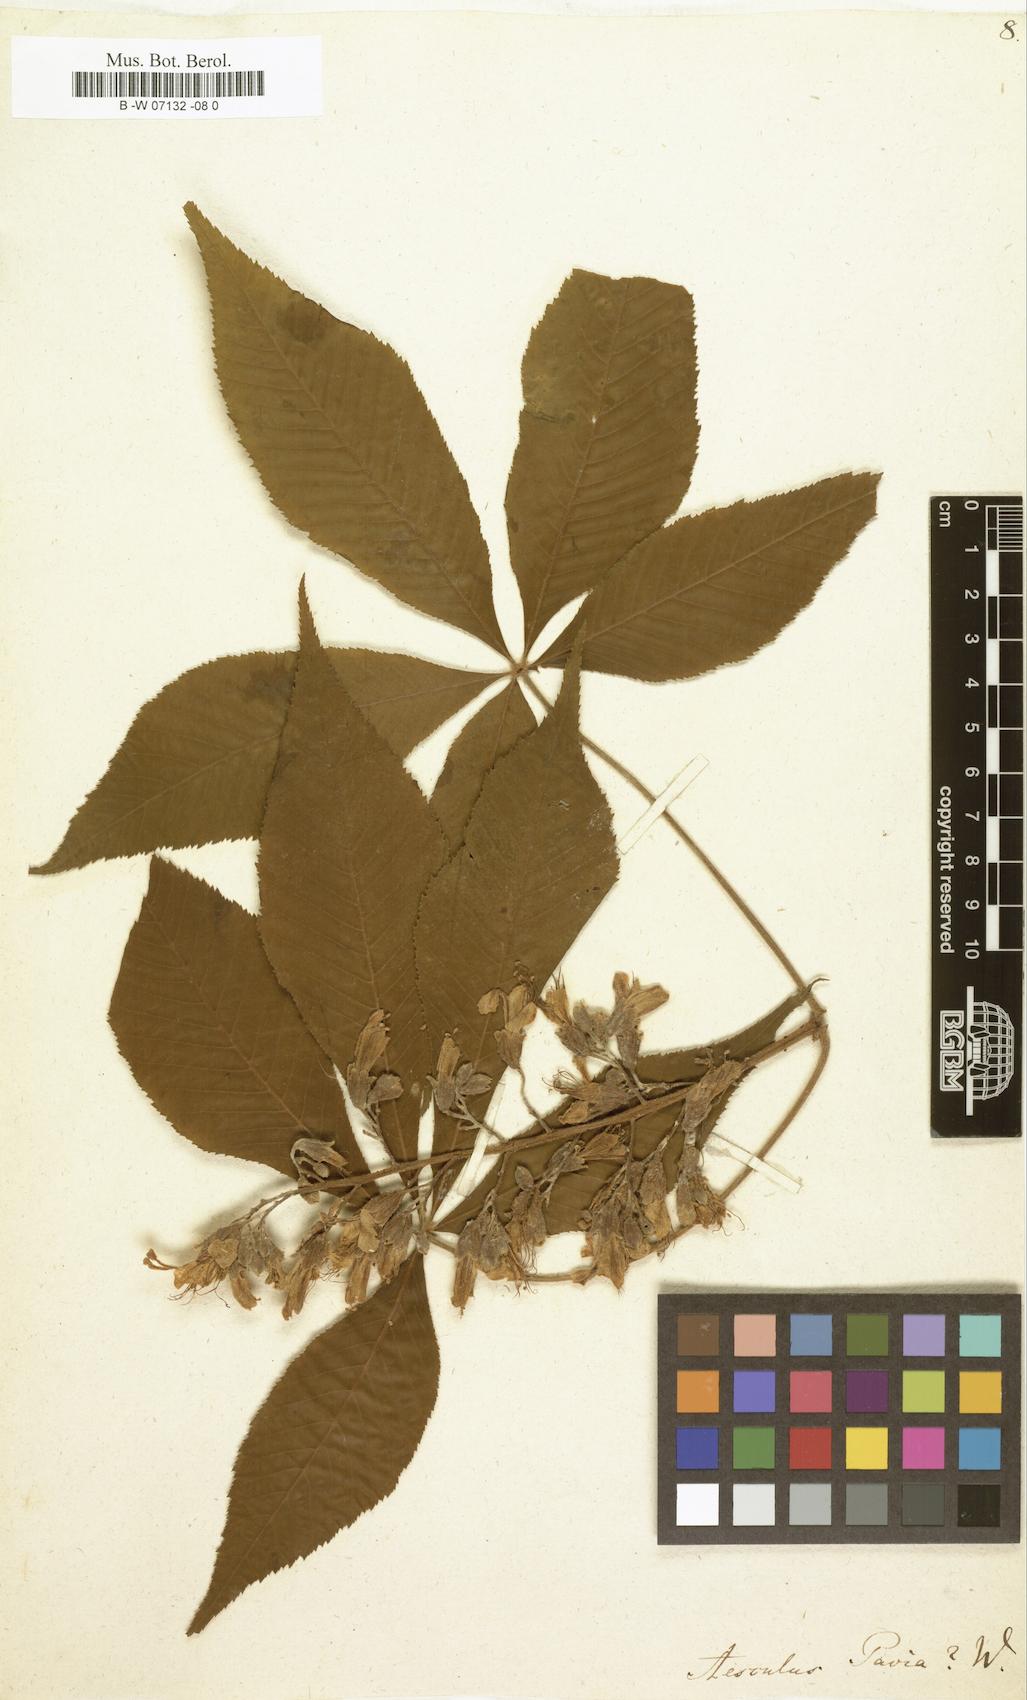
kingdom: Plantae
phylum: Tracheophyta
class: Magnoliopsida
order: Sapindales
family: Sapindaceae
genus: Aesculus
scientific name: Aesculus pavia
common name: Red buckeye
